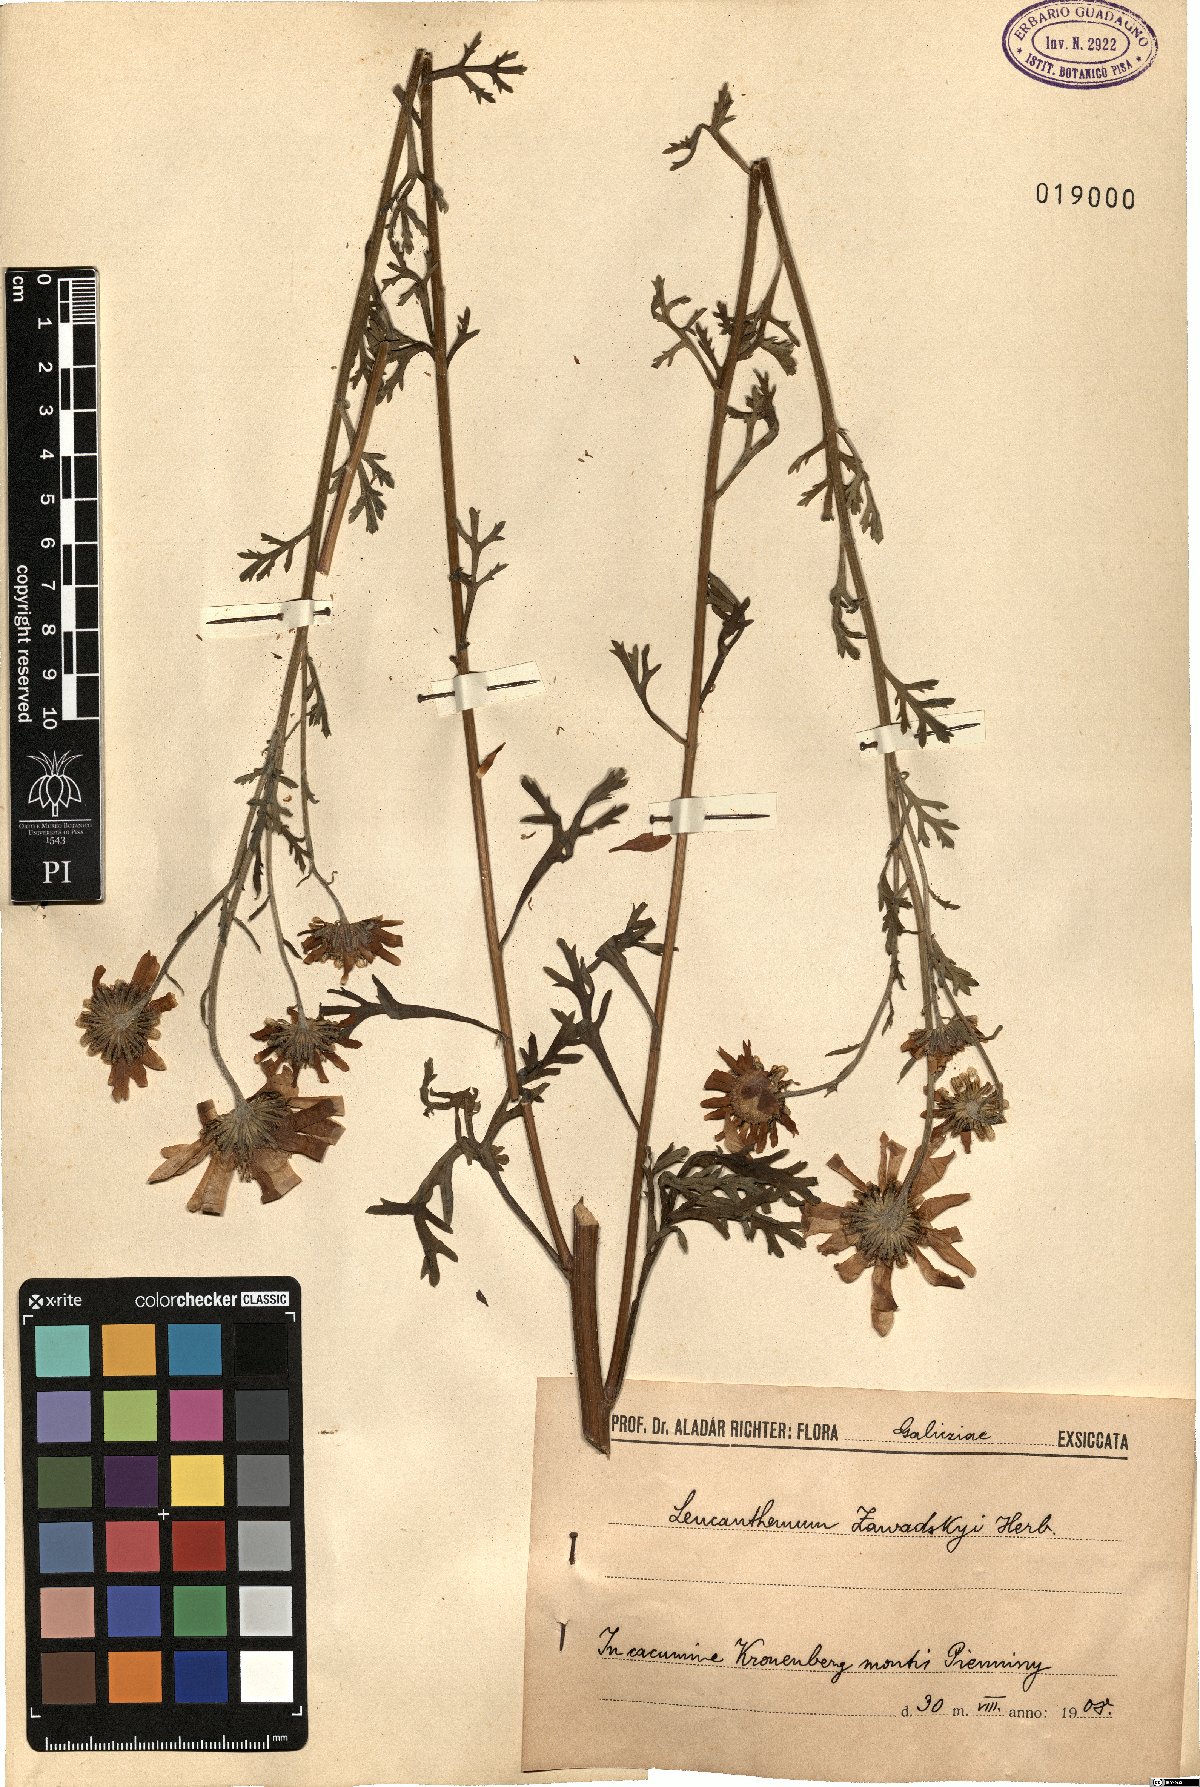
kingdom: Plantae
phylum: Tracheophyta
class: Magnoliopsida
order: Asterales
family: Asteraceae
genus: Leucanthemum
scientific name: Leucanthemum zawadskii
